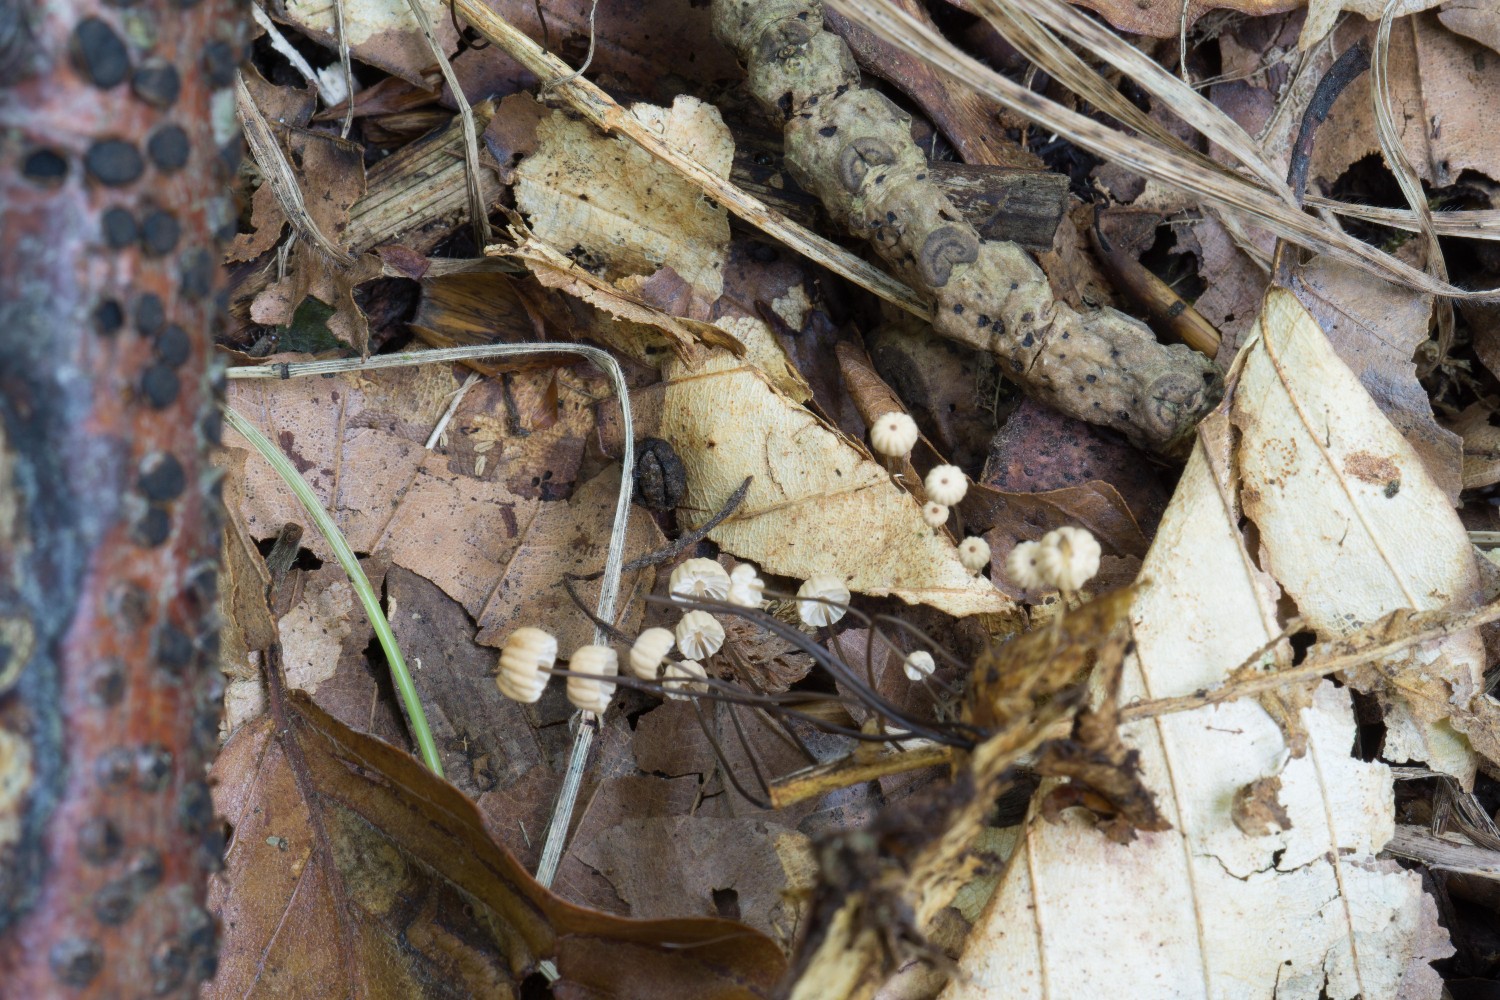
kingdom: Fungi
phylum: Basidiomycota
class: Agaricomycetes
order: Agaricales
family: Marasmiaceae
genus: Marasmius
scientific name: Marasmius bulliardii
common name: furet bruskhat
